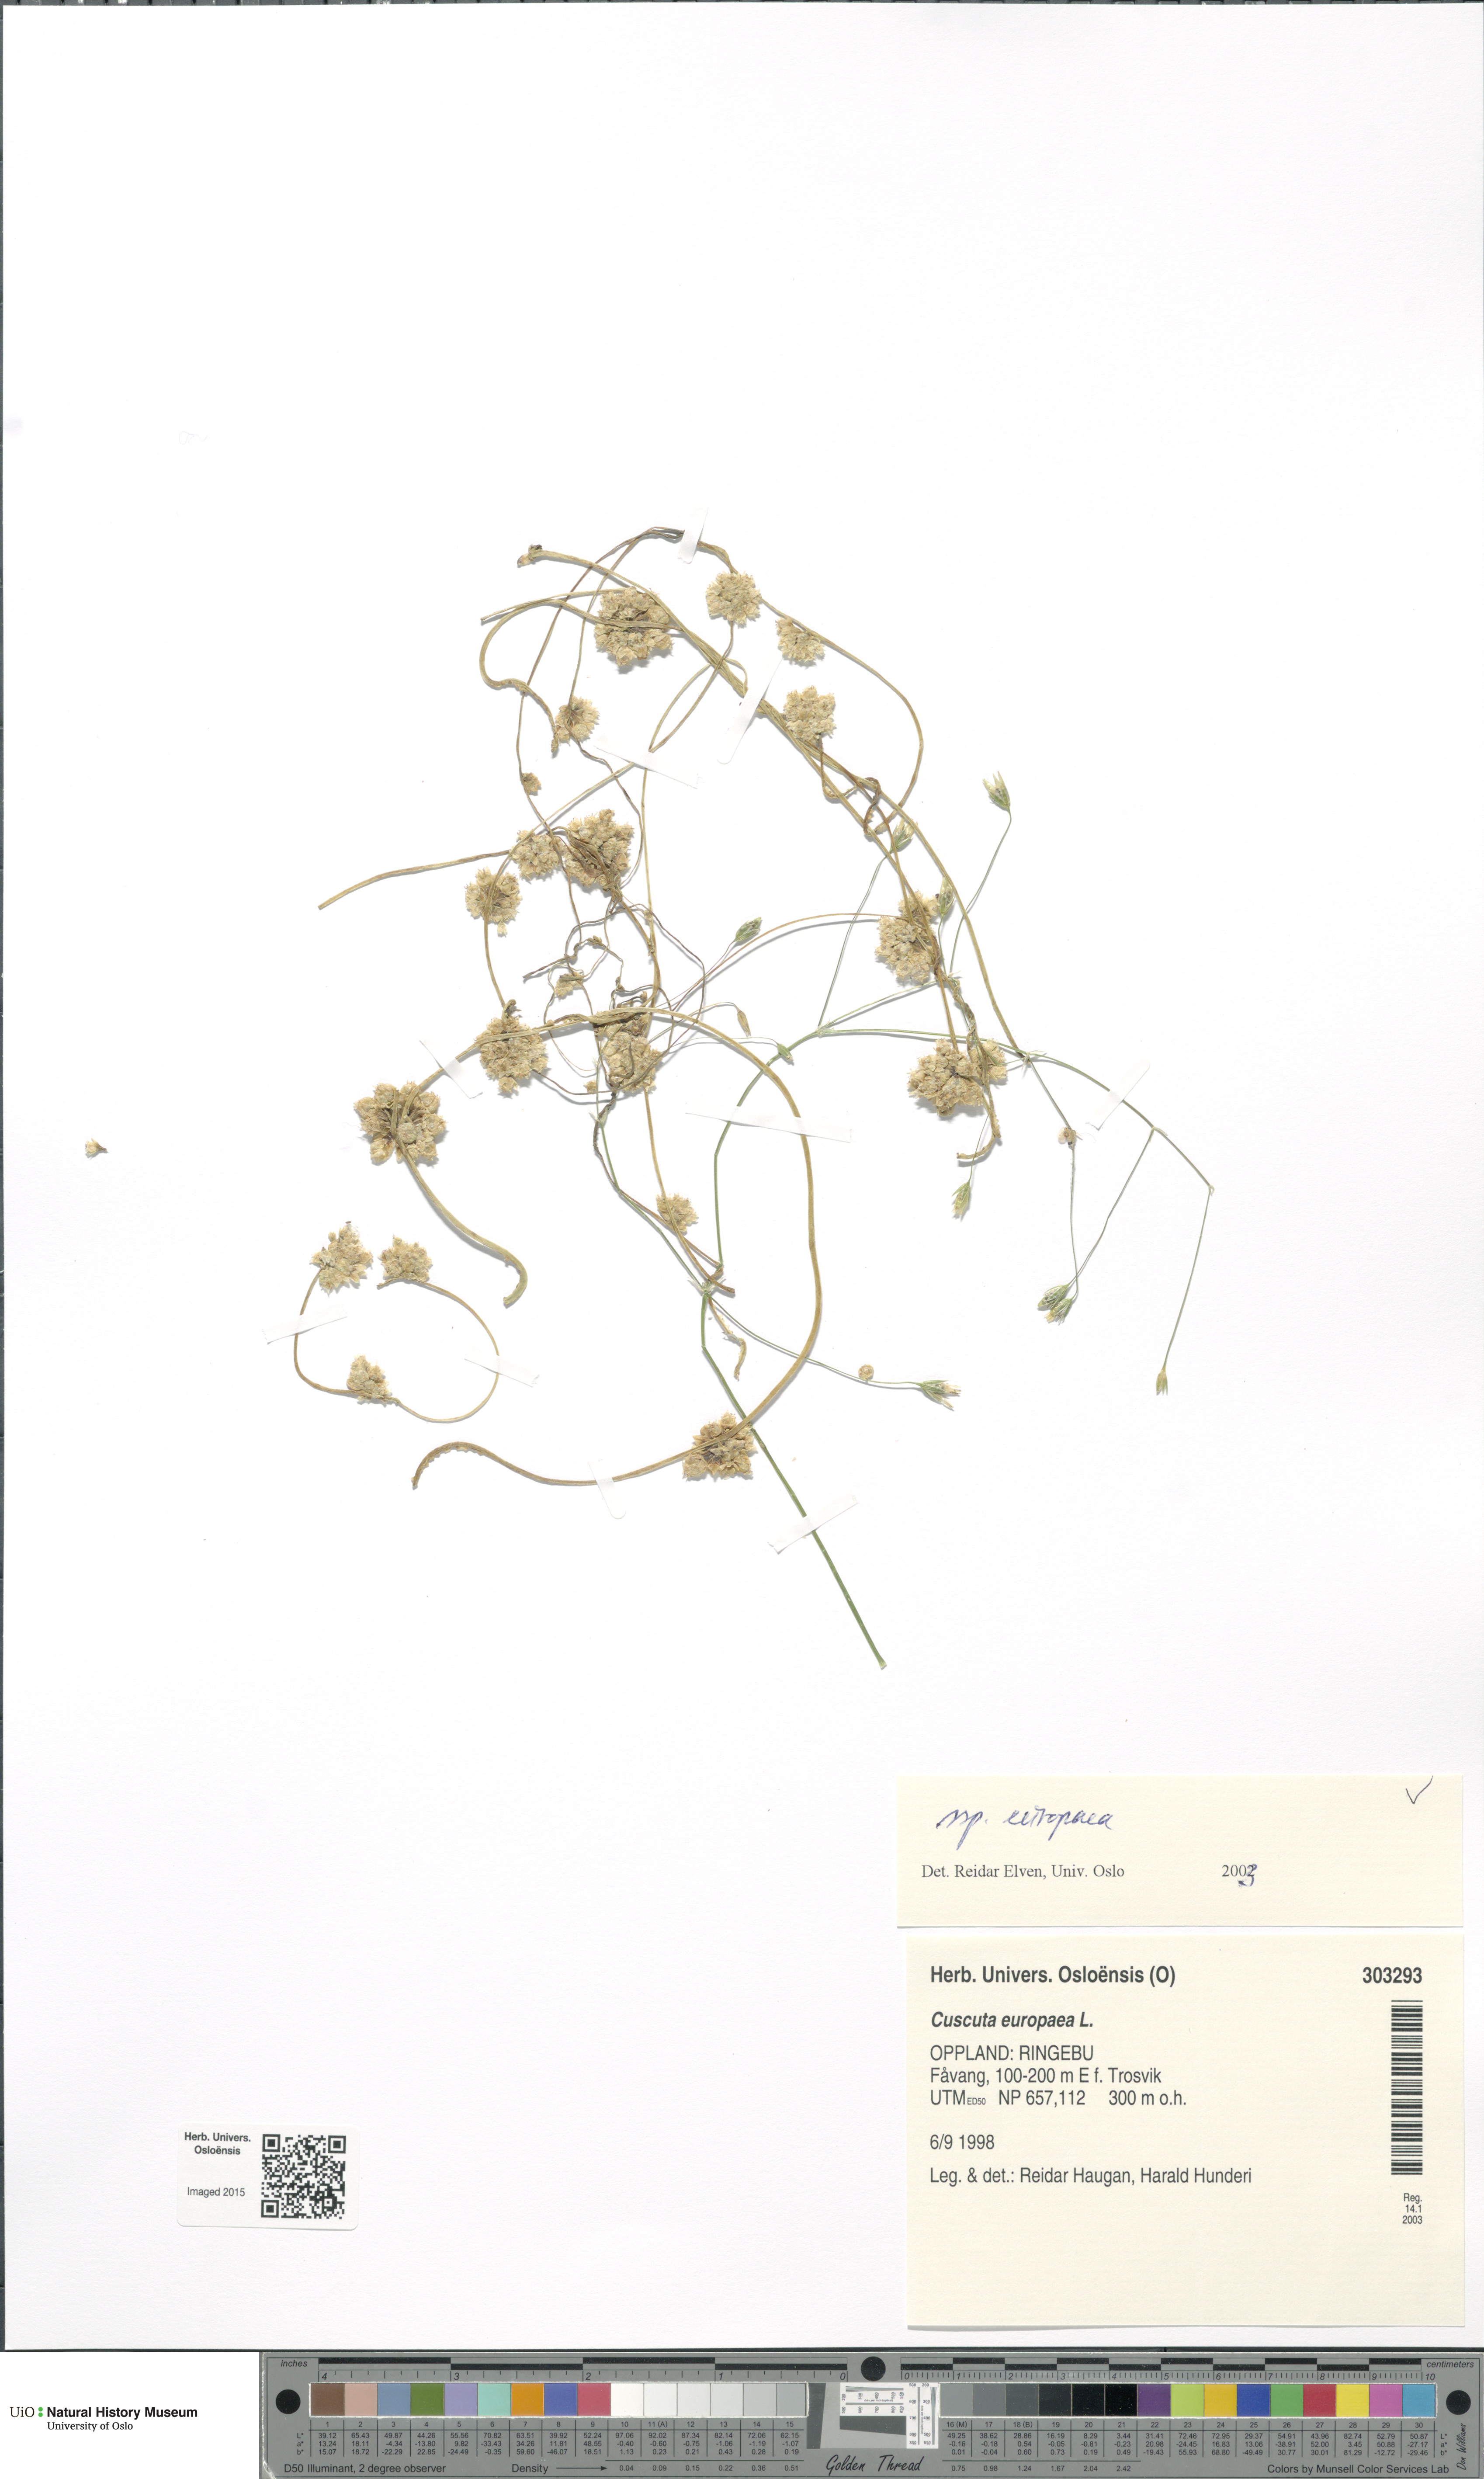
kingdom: Plantae
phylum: Tracheophyta
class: Magnoliopsida
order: Solanales
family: Convolvulaceae
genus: Cuscuta
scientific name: Cuscuta europaea
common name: Greater dodder
